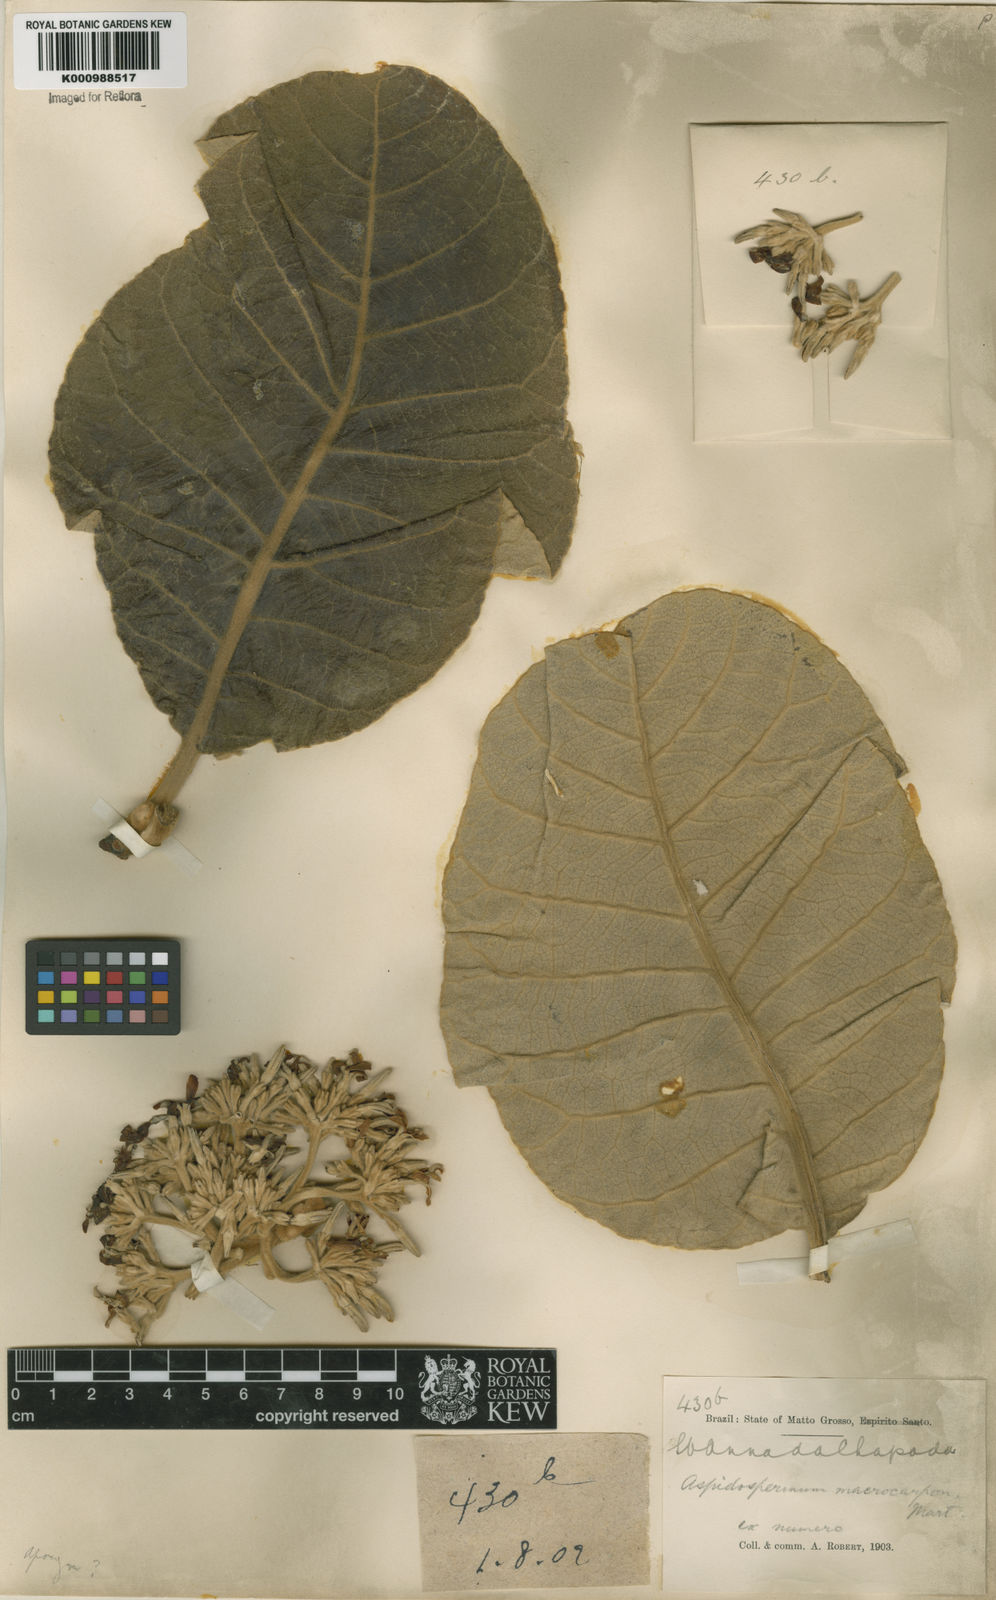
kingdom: Plantae
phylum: Tracheophyta
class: Magnoliopsida
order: Gentianales
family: Apocynaceae
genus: Aspidosperma
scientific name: Aspidosperma macrocarpon
